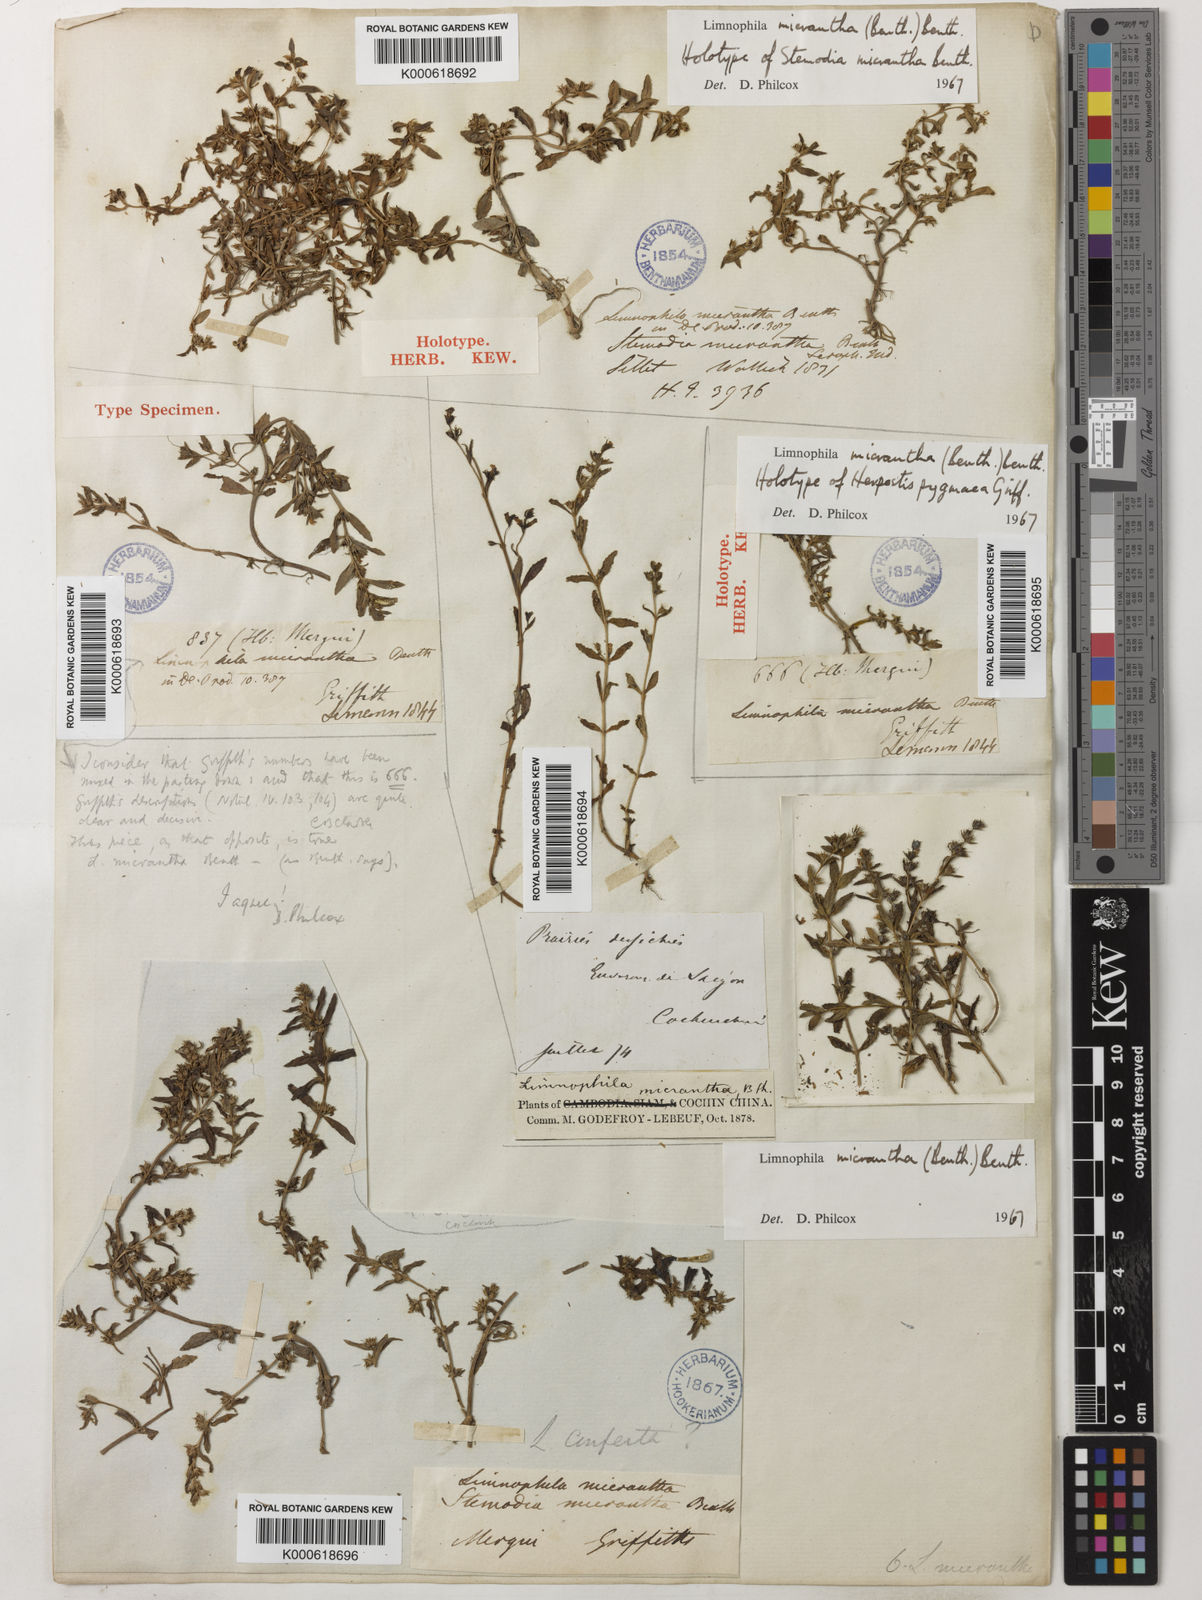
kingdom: Plantae
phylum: Tracheophyta
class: Magnoliopsida
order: Lamiales
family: Plantaginaceae
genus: Limnophila
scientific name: Limnophila micrantha
